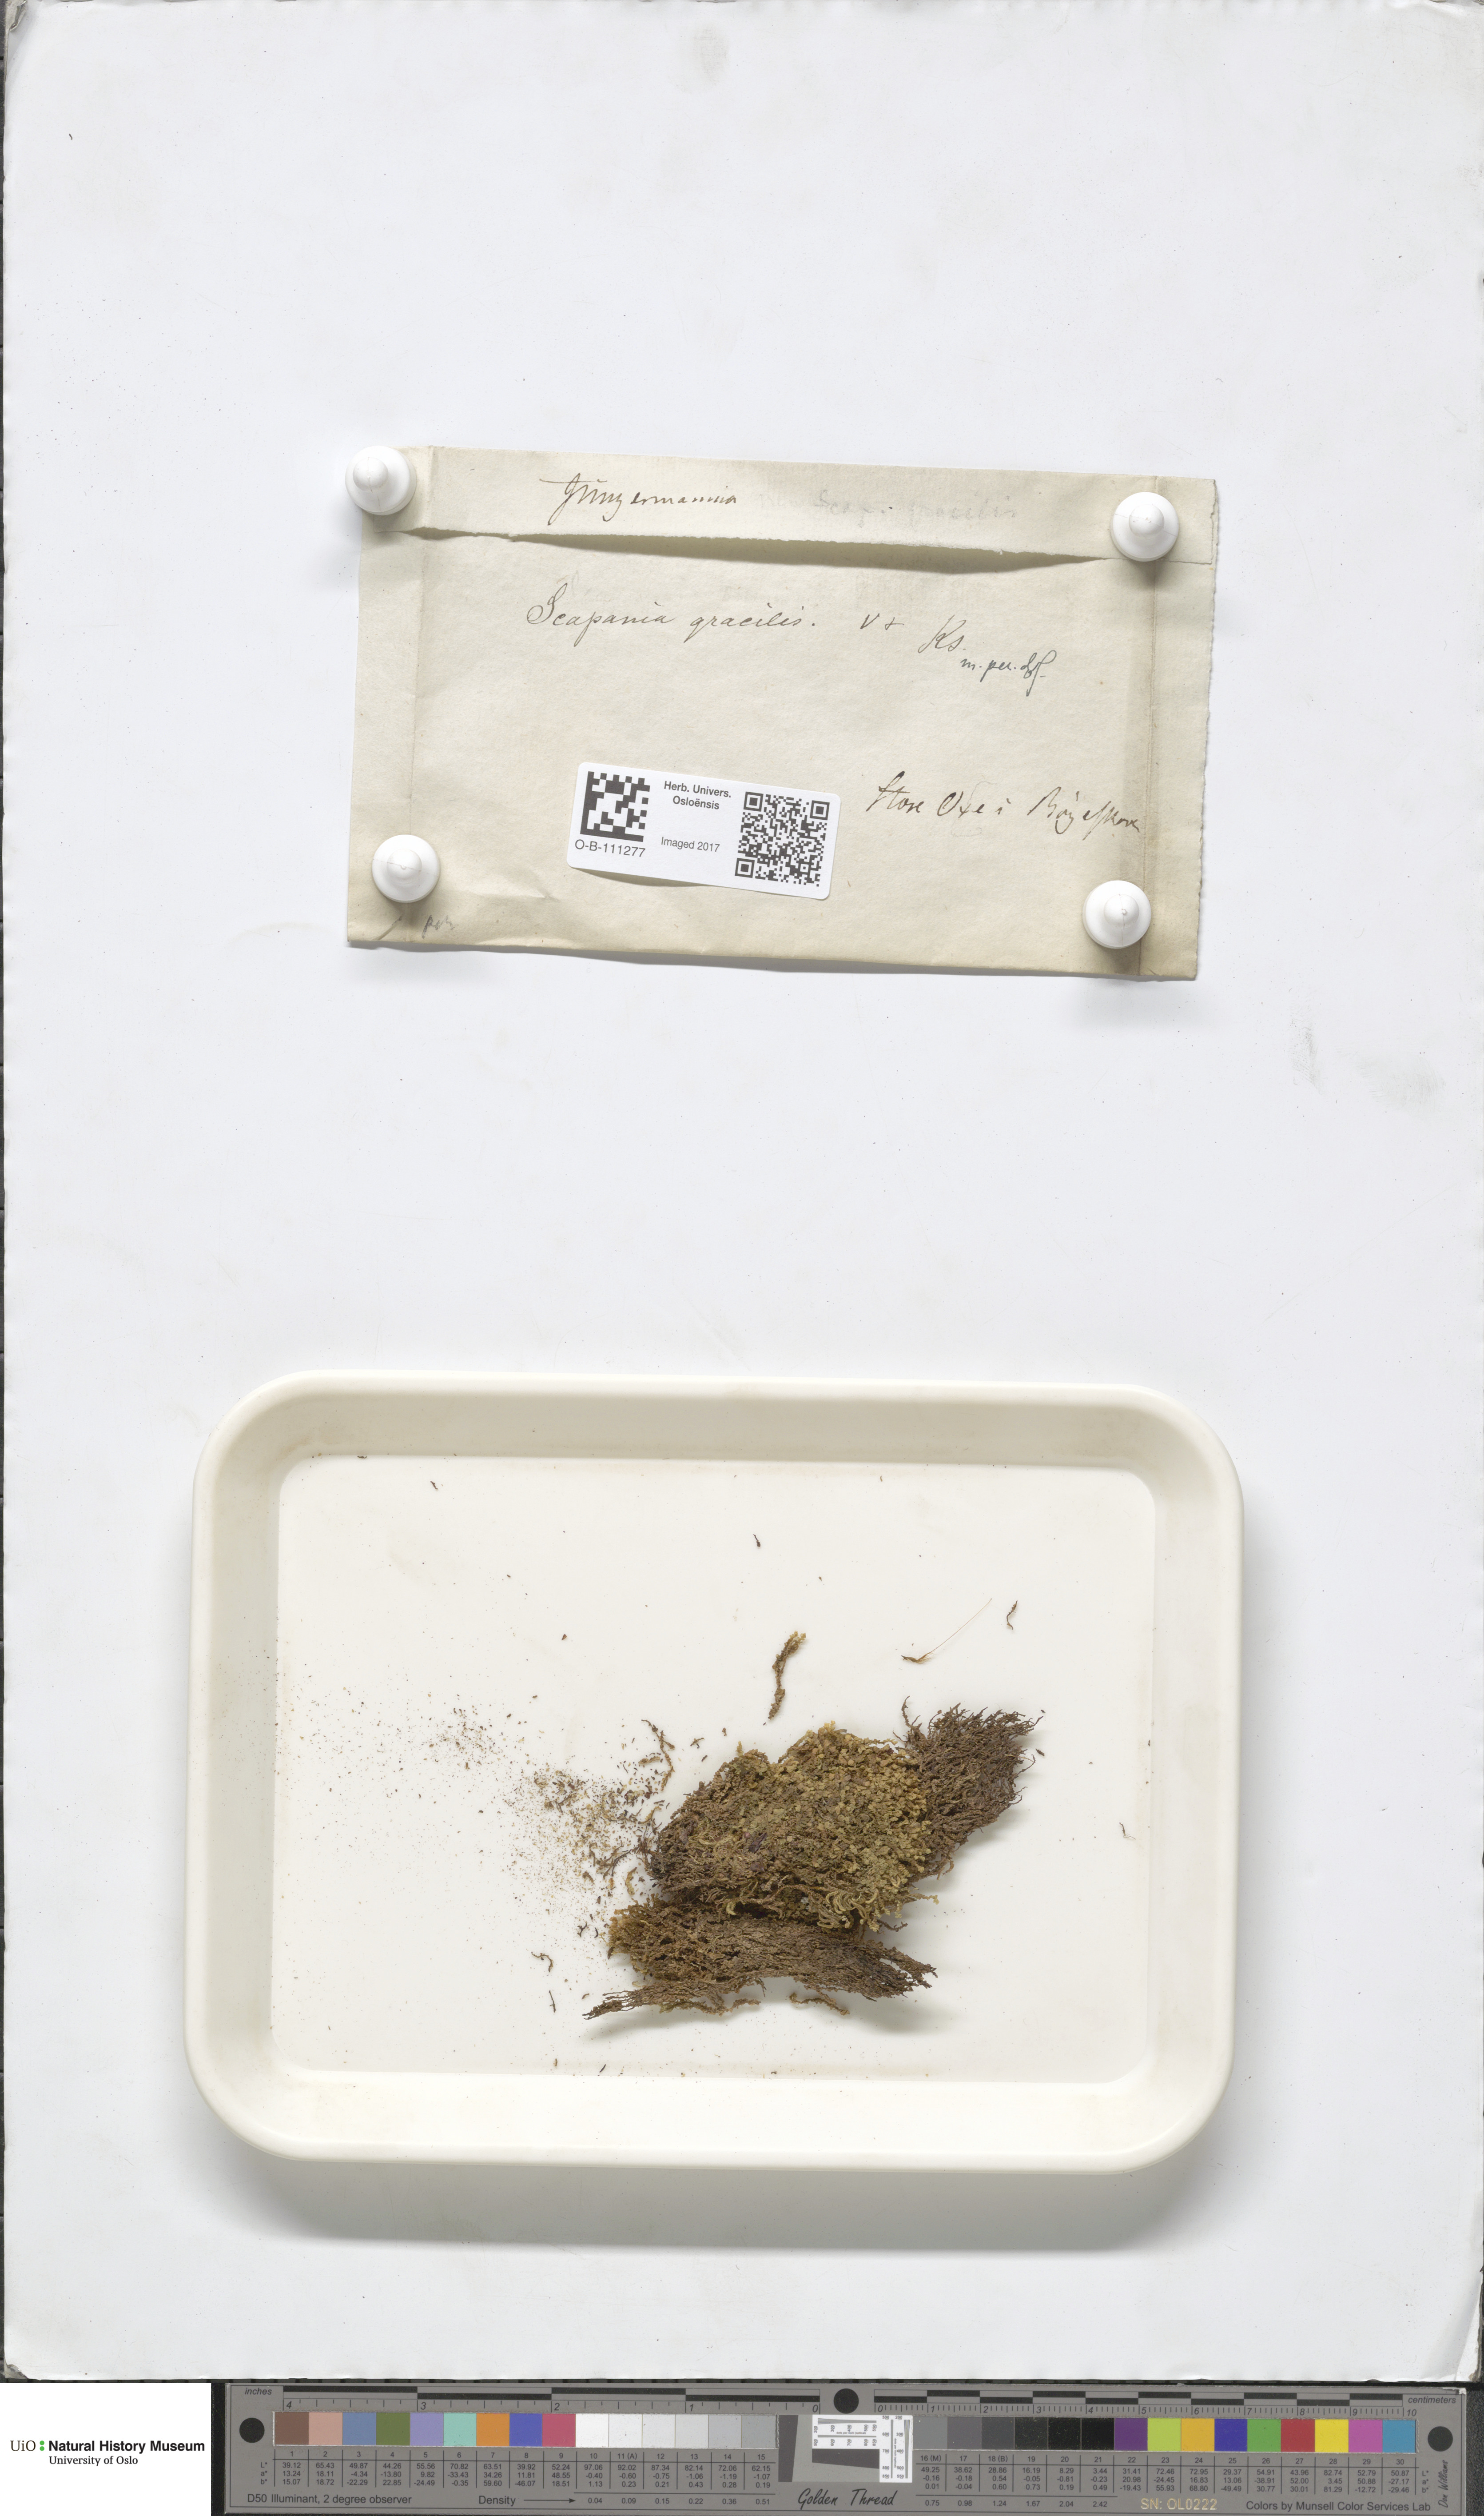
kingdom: Plantae
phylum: Marchantiophyta
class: Jungermanniopsida
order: Jungermanniales
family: Scapaniaceae
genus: Scapania
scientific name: Scapania gracilis
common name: Western earwort
